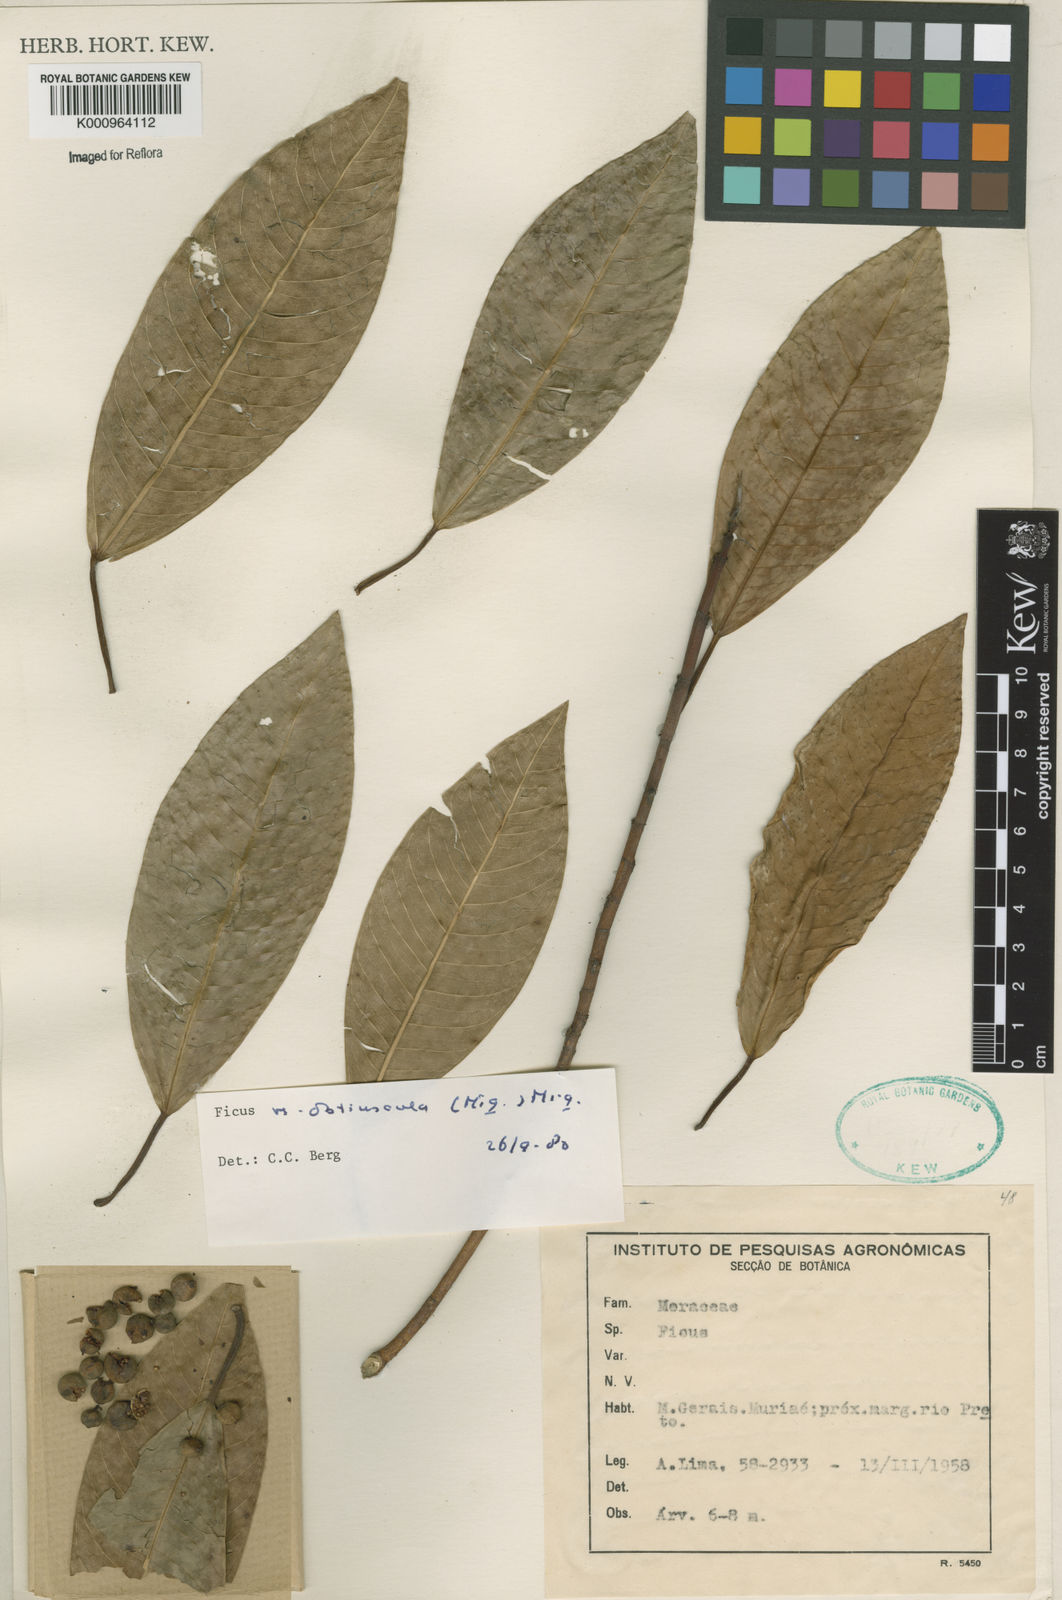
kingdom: Plantae
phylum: Tracheophyta
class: Magnoliopsida
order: Rosales
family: Moraceae
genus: Ficus
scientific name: Ficus obtusiuscula
